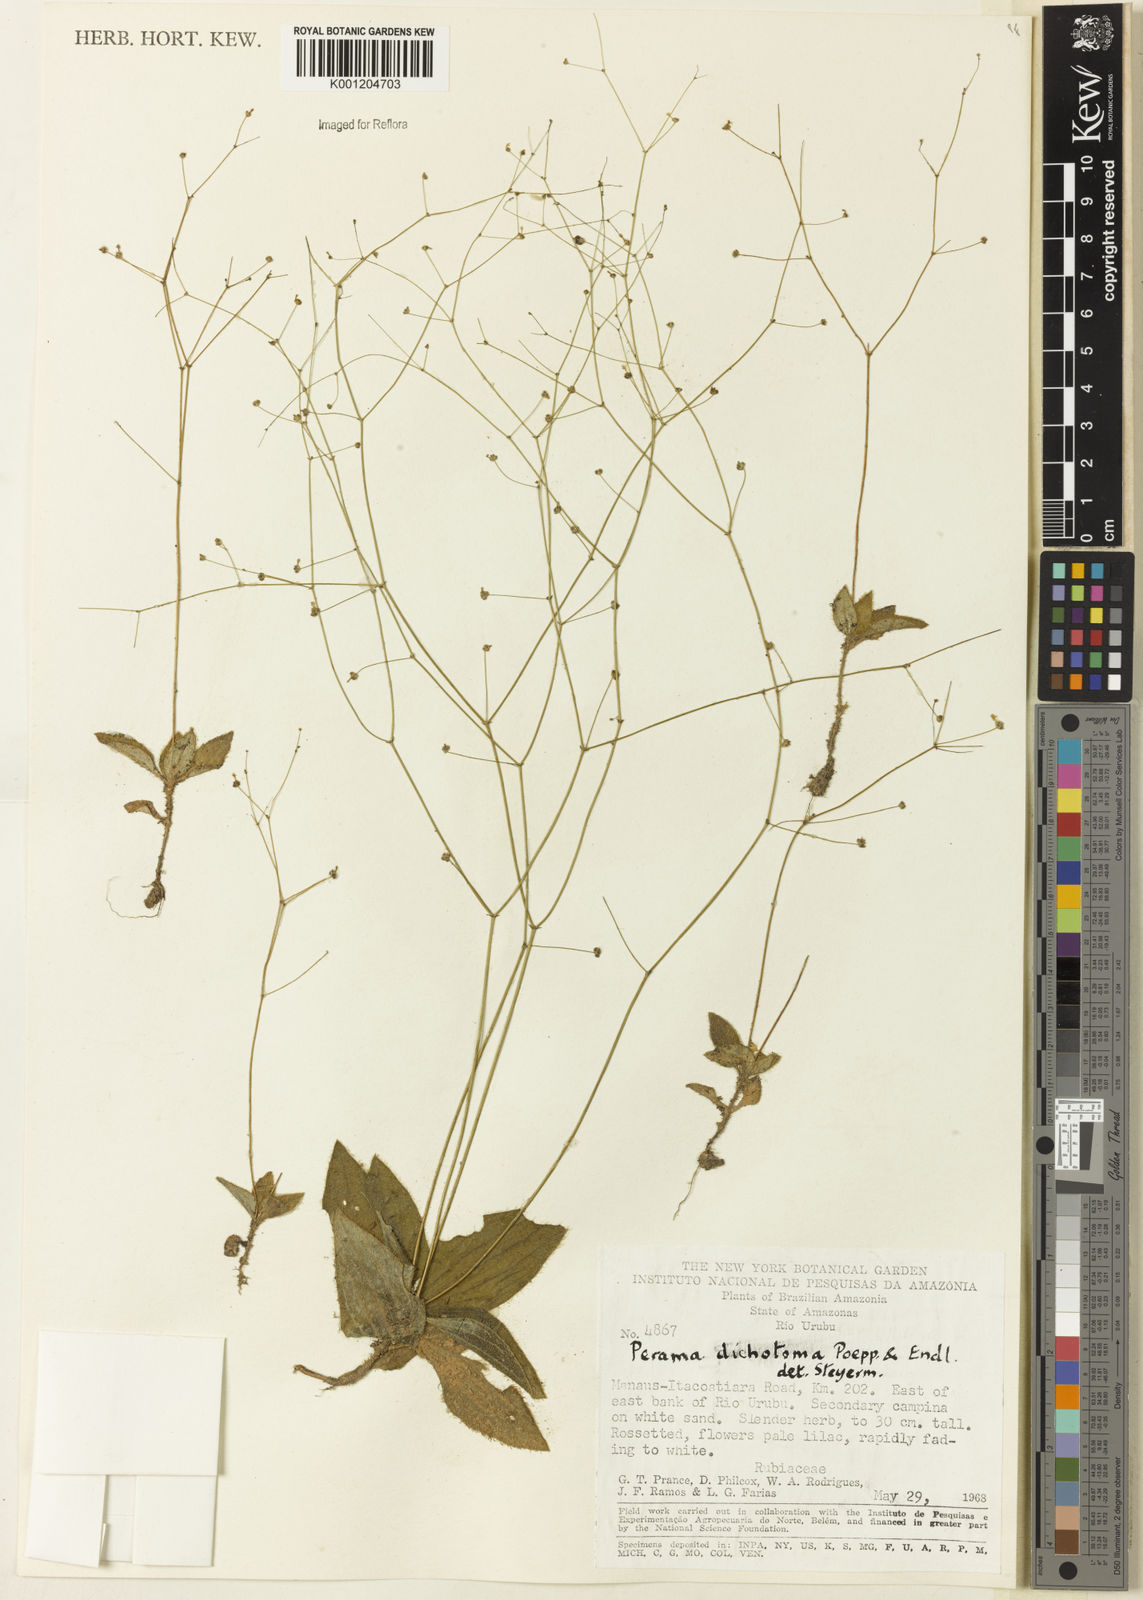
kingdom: Plantae
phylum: Tracheophyta
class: Magnoliopsida
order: Gentianales
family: Rubiaceae
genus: Perama
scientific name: Perama dichotoma
